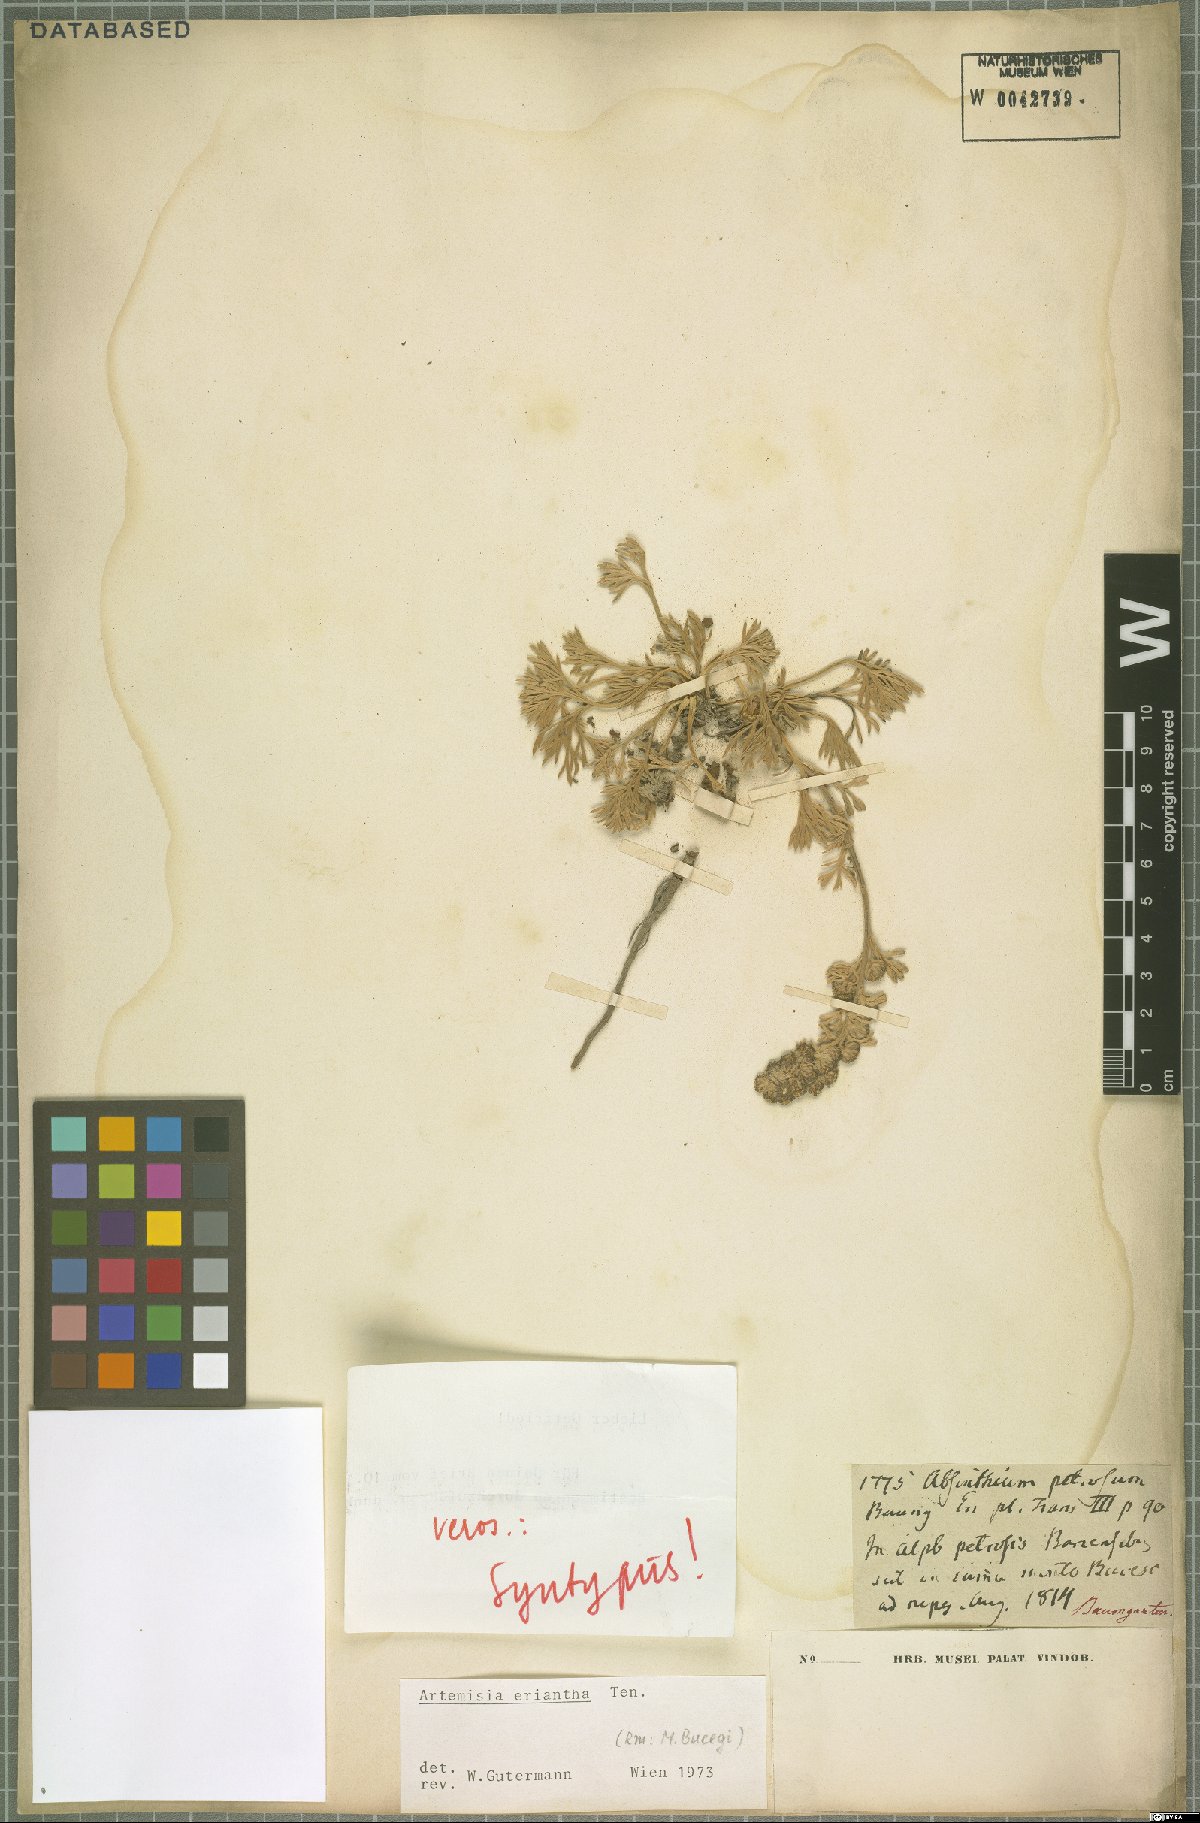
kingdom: Plantae
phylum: Tracheophyta
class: Magnoliopsida
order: Asterales
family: Asteraceae
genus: Artemisia
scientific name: Artemisia eriantha
